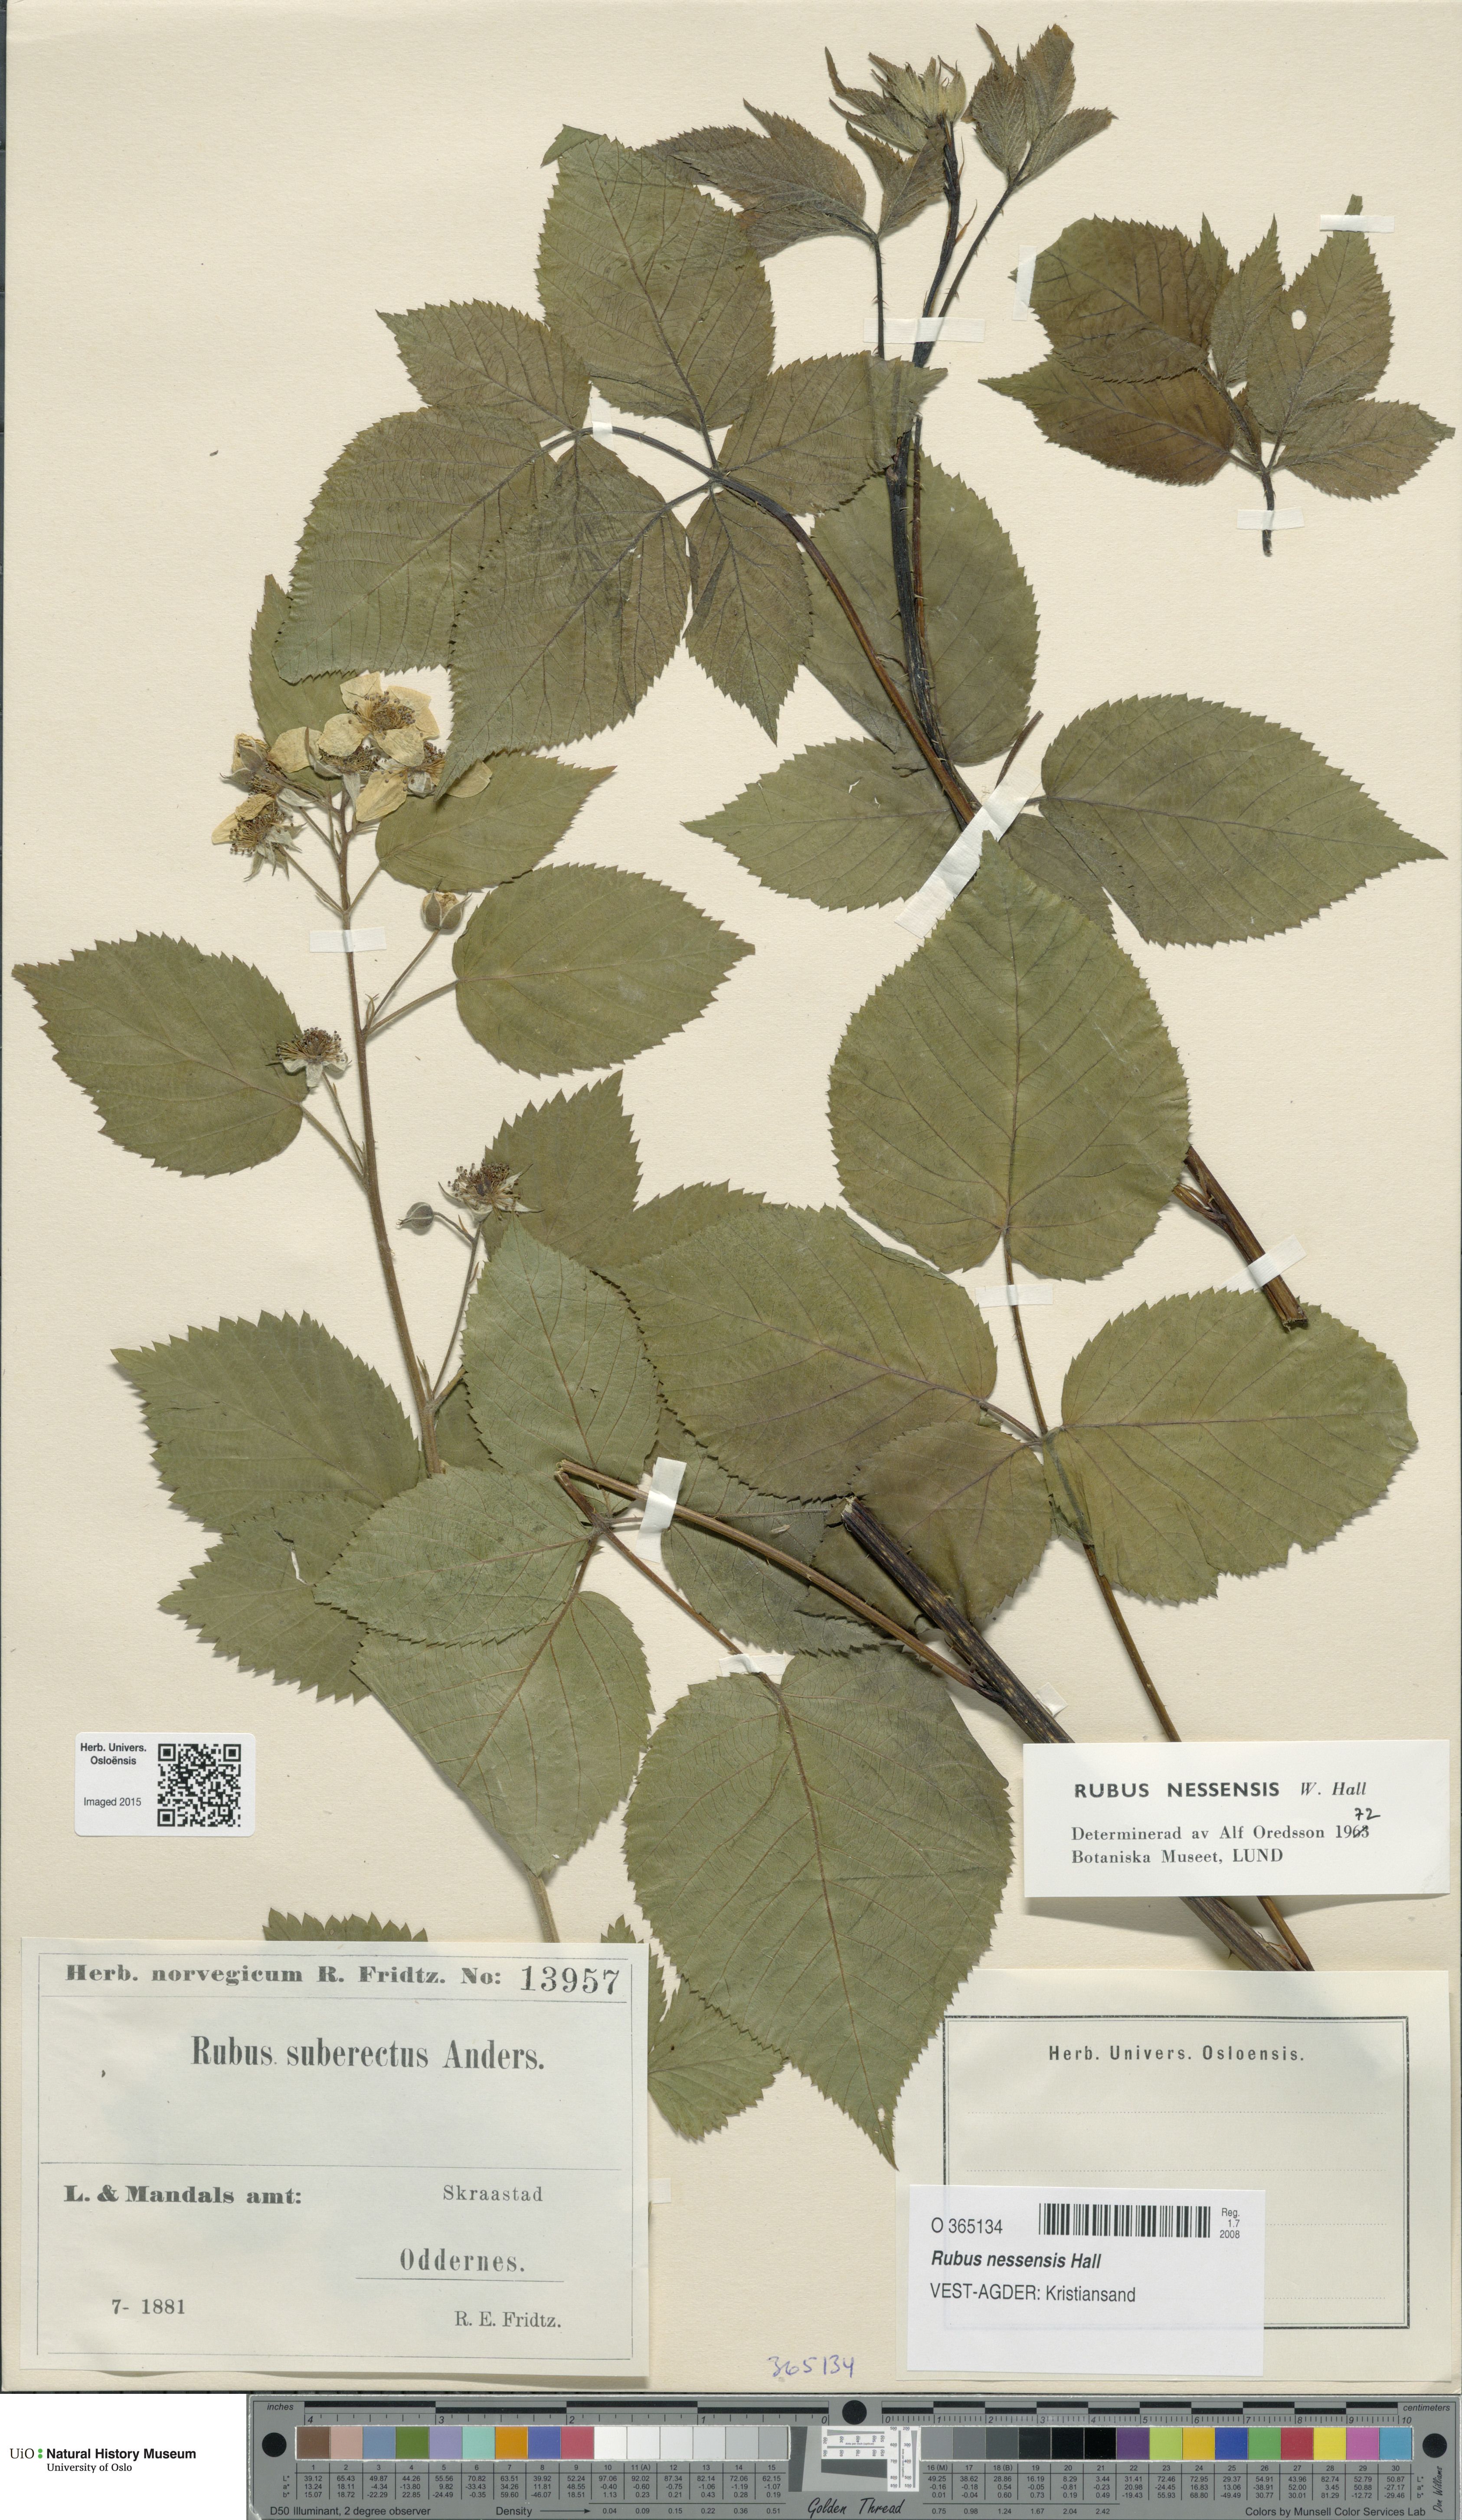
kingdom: Plantae
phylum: Tracheophyta
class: Magnoliopsida
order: Rosales
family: Rosaceae
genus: Rubus
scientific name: Rubus polonicus
